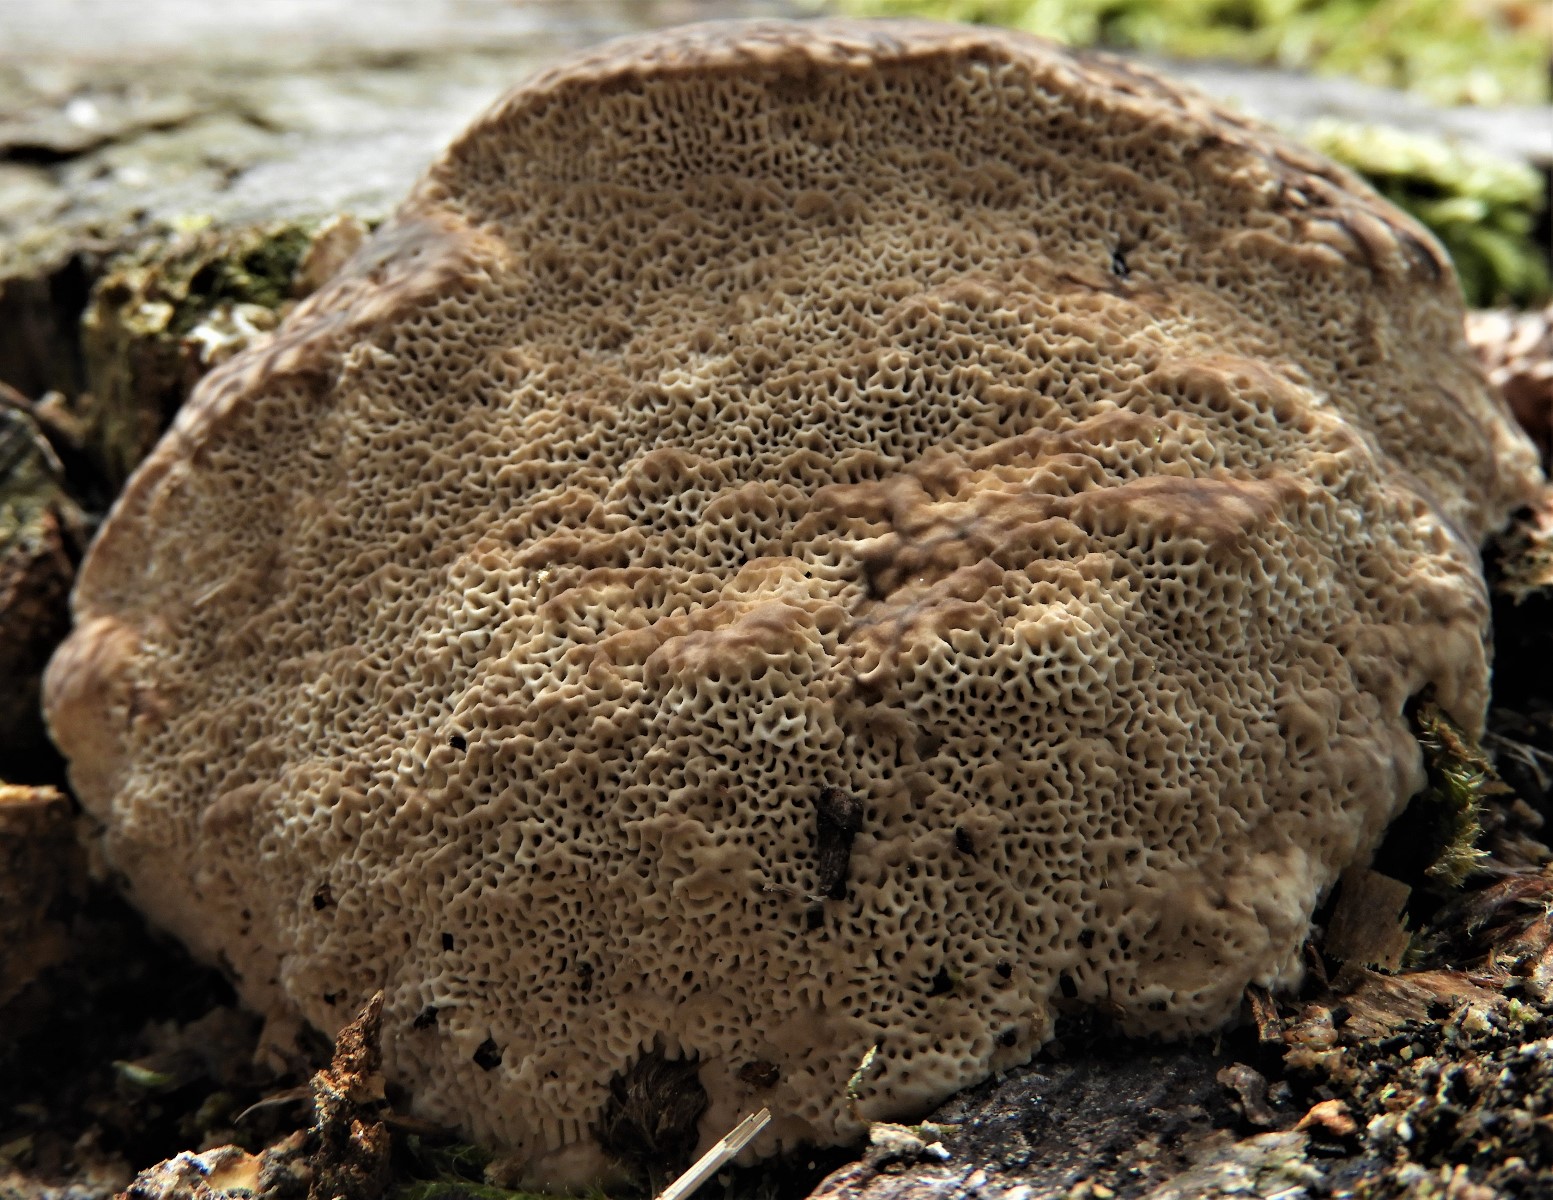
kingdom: Fungi
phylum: Basidiomycota
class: Agaricomycetes
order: Polyporales
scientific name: Polyporales
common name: poresvampordenen
